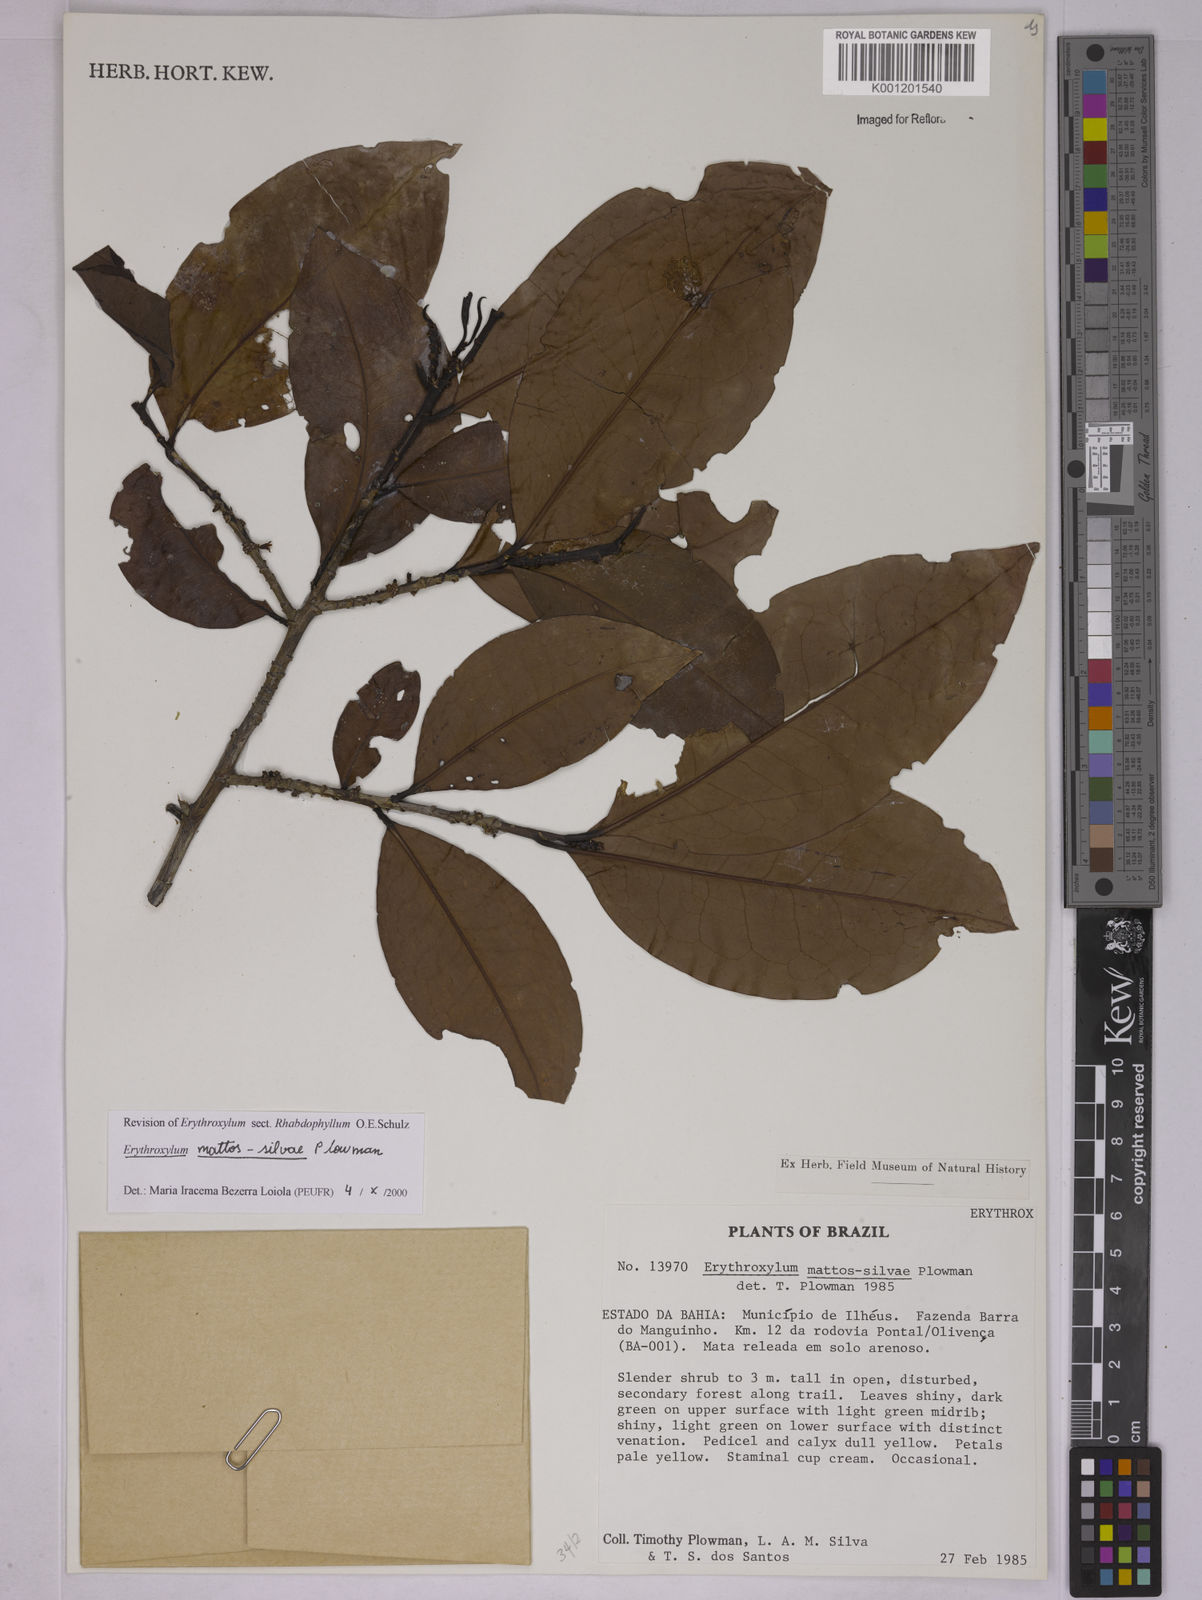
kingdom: Plantae
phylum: Tracheophyta
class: Magnoliopsida
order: Malpighiales
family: Erythroxylaceae
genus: Erythroxylum
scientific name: Erythroxylum mattos-silvae
